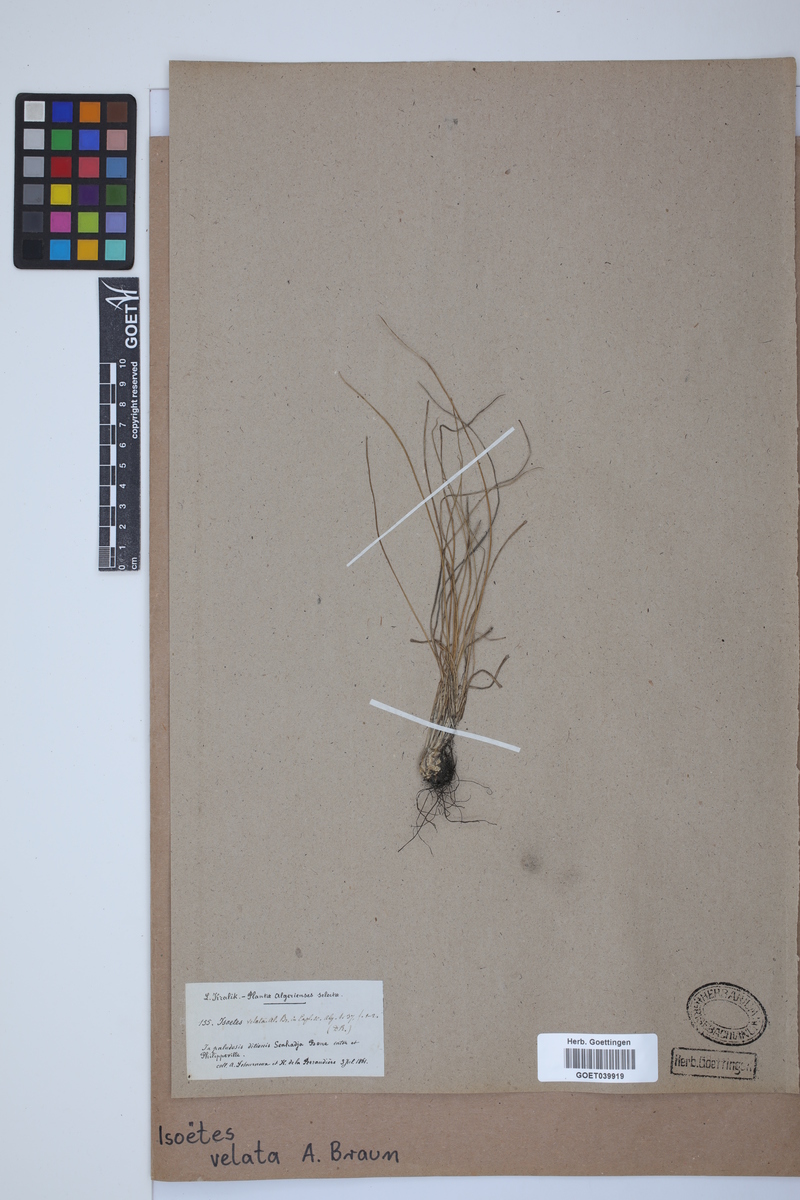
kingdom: Plantae
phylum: Tracheophyta
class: Lycopodiopsida
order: Isoetales
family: Isoetaceae
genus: Isoetes
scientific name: Isoetes longissima
